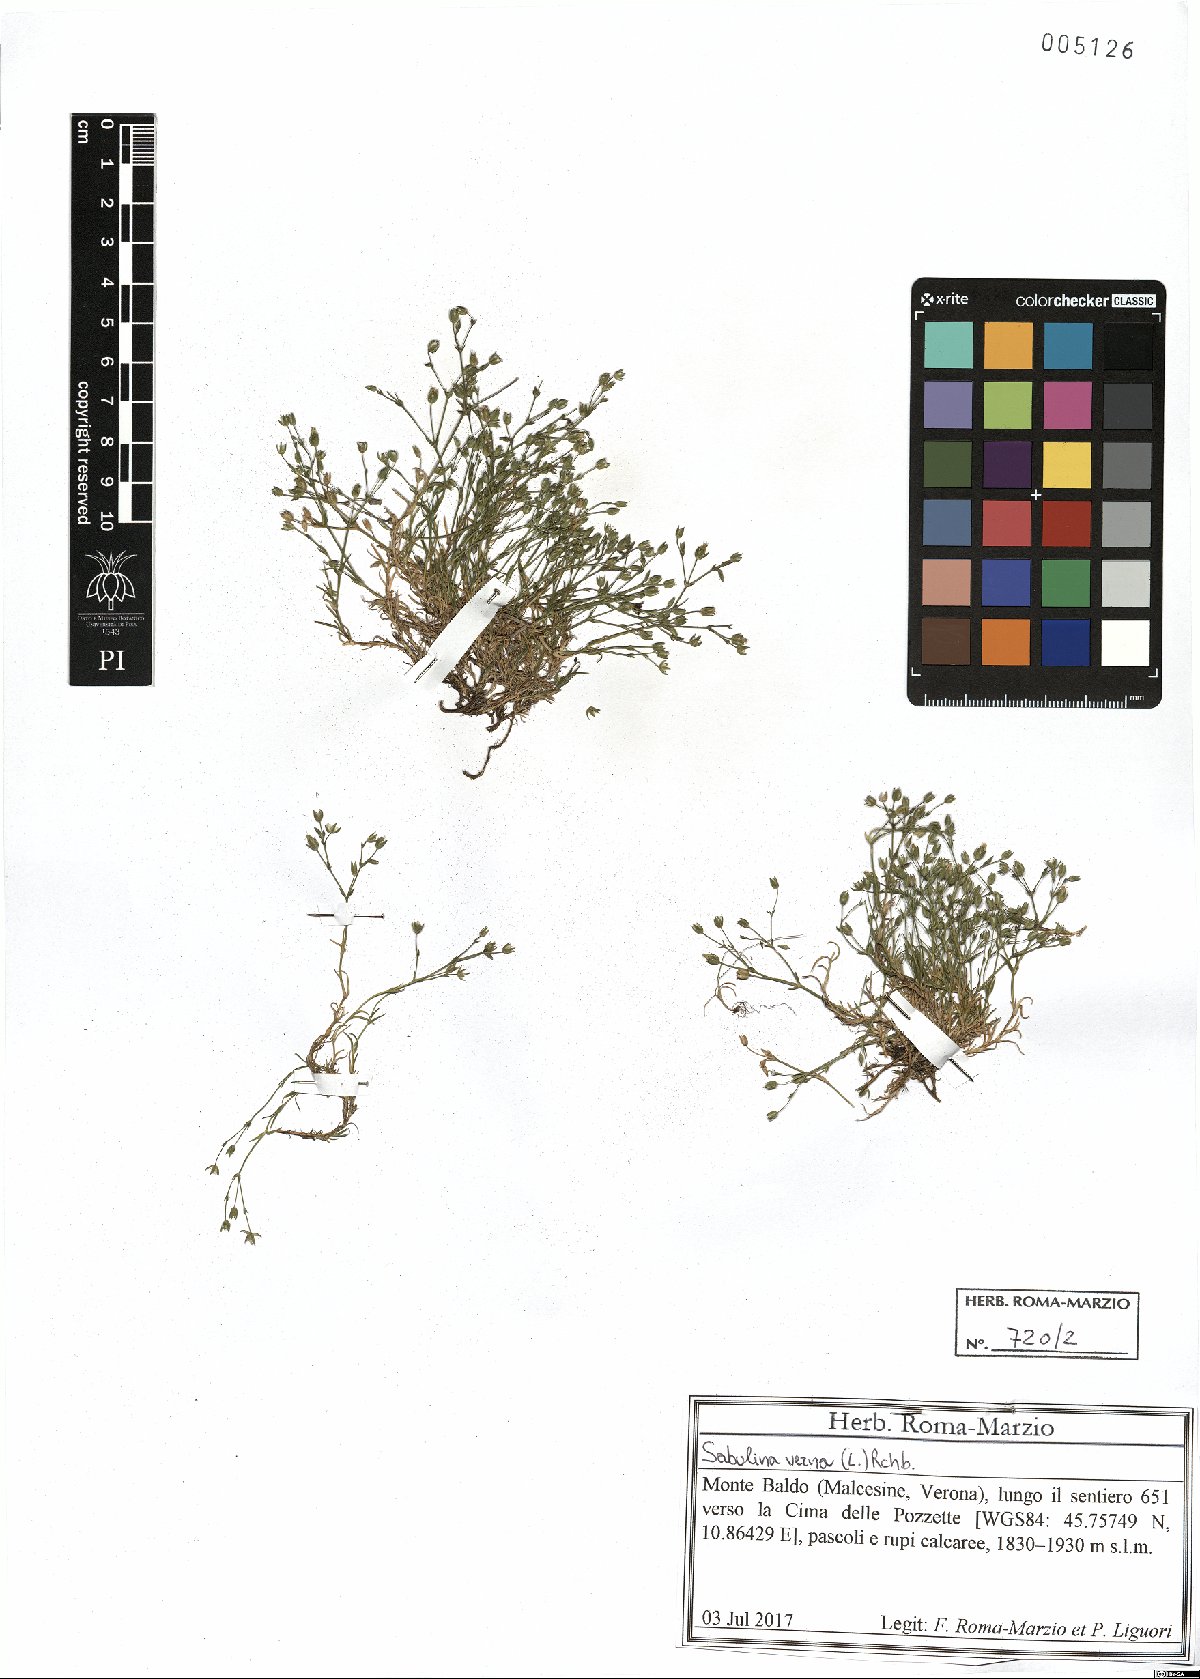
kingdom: Plantae
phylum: Tracheophyta
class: Magnoliopsida
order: Caryophyllales
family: Caryophyllaceae
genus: Sabulina
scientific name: Sabulina verna
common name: Spring sandwort
